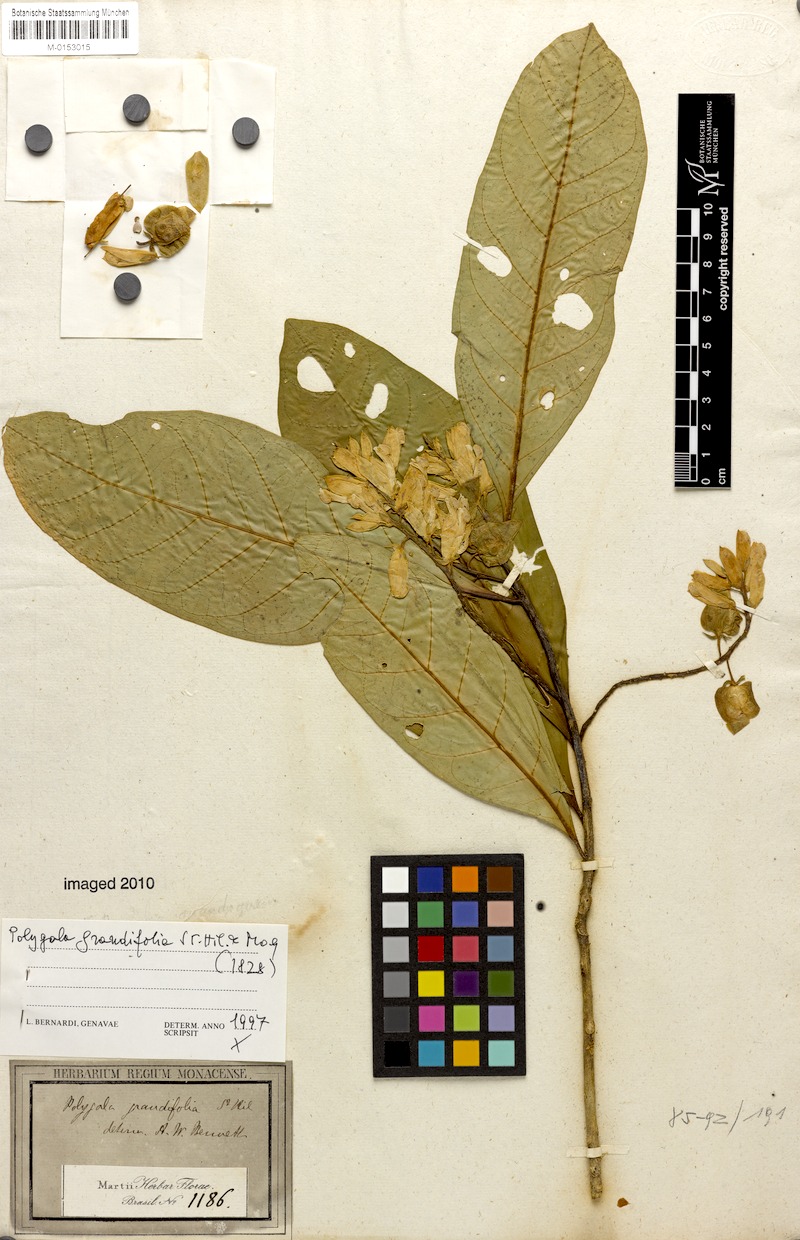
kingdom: Plantae
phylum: Tracheophyta
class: Magnoliopsida
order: Fabales
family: Polygalaceae
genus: Caamembeca
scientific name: Caamembeca grandifolia
